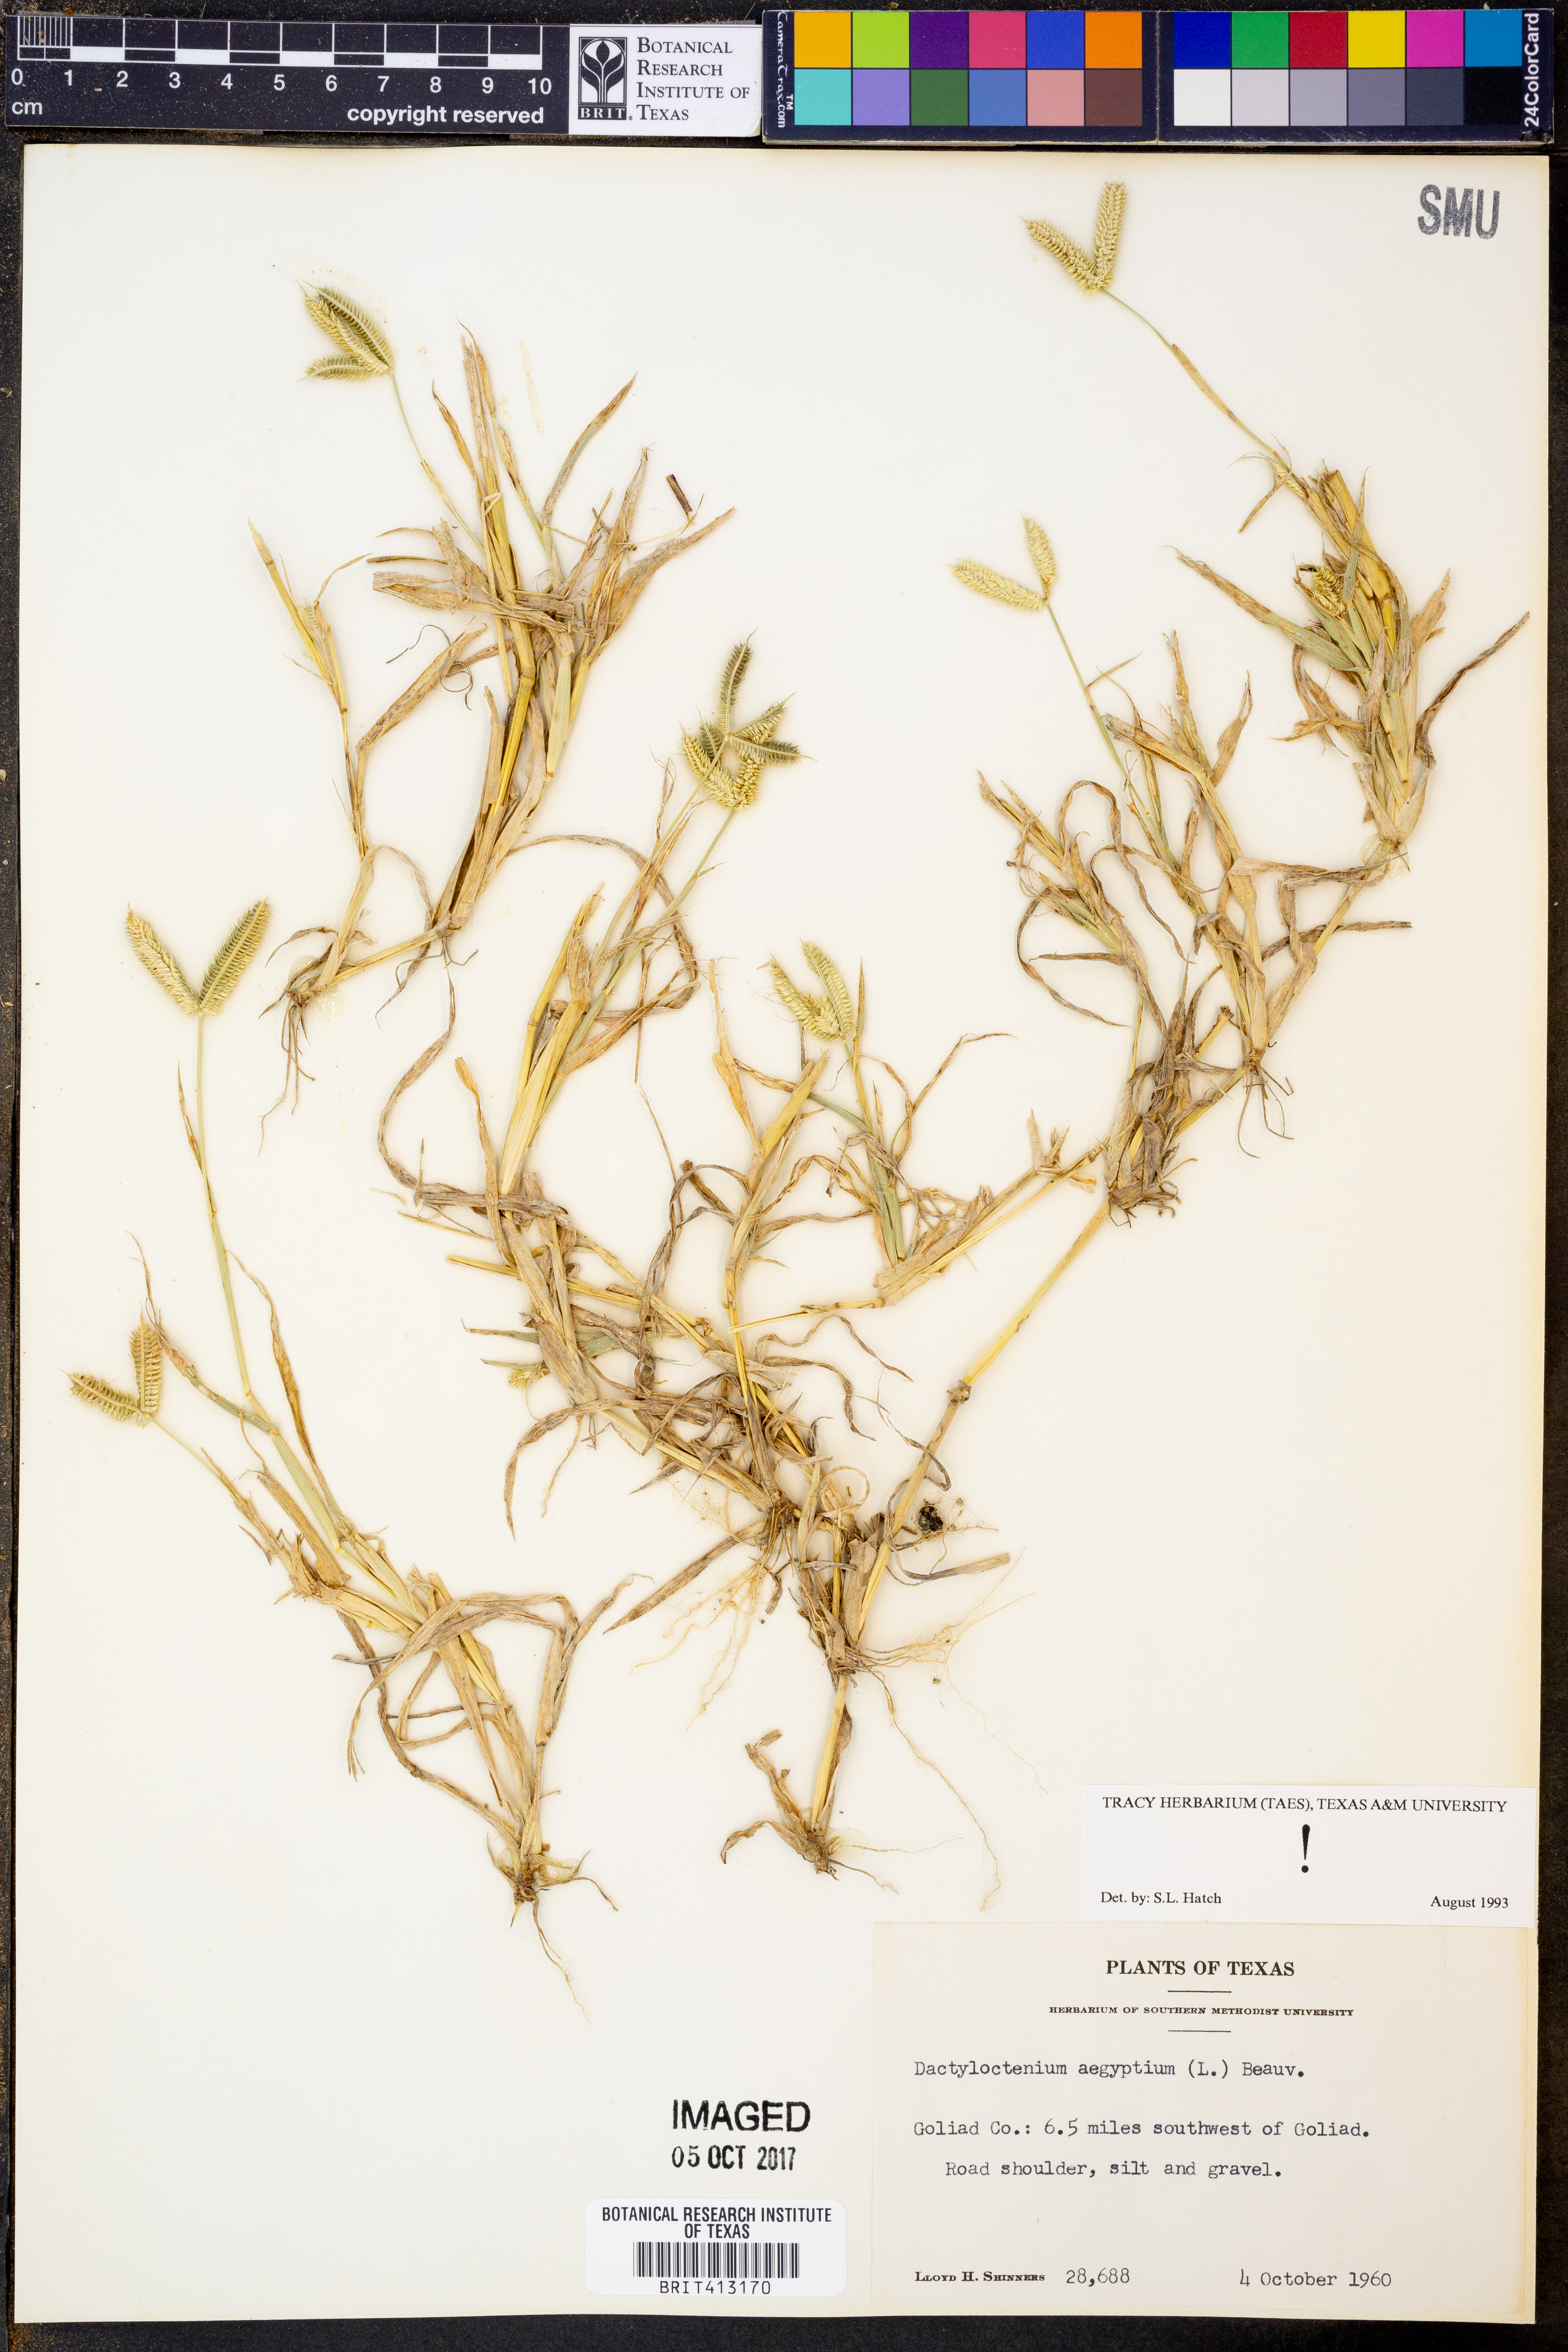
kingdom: Plantae
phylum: Tracheophyta
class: Liliopsida
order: Poales
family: Poaceae
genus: Dactyloctenium
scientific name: Dactyloctenium aegyptium
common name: Egyptian grass
